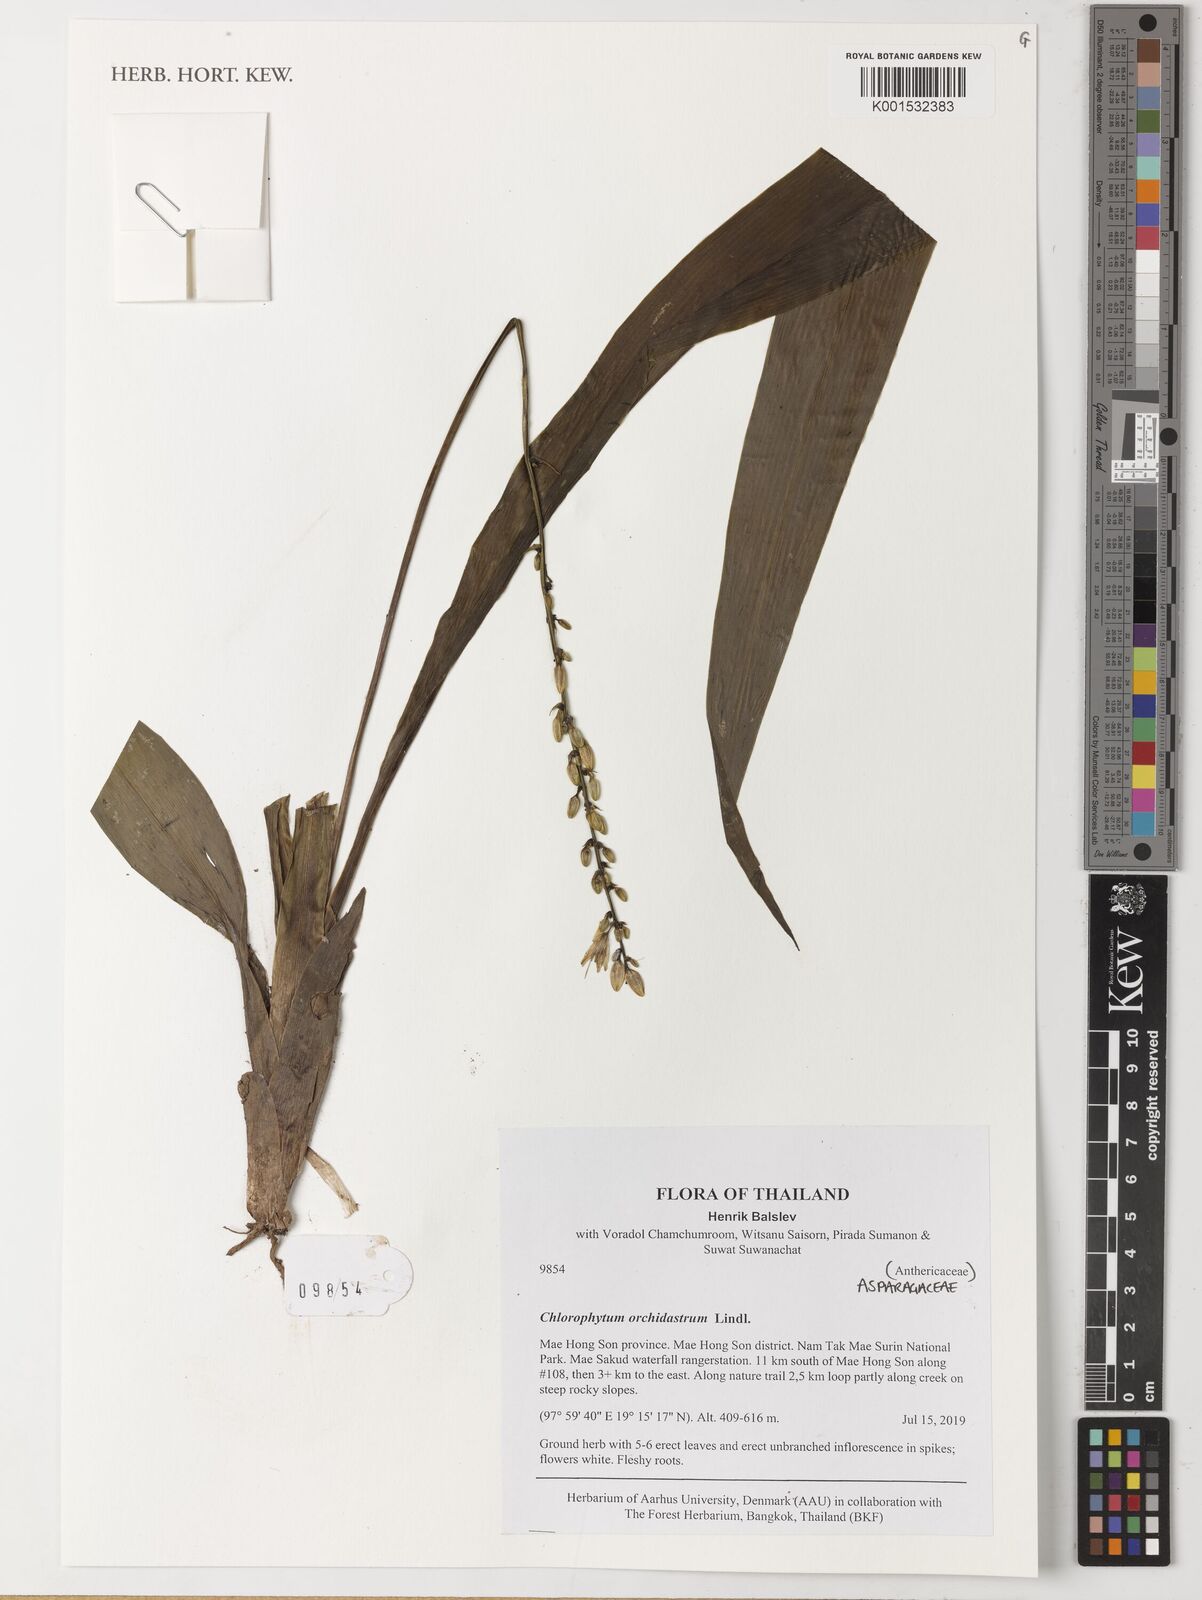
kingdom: Plantae
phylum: Tracheophyta
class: Liliopsida
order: Asparagales
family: Asparagaceae
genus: Chlorophytum
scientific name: Chlorophytum orchidastrum
